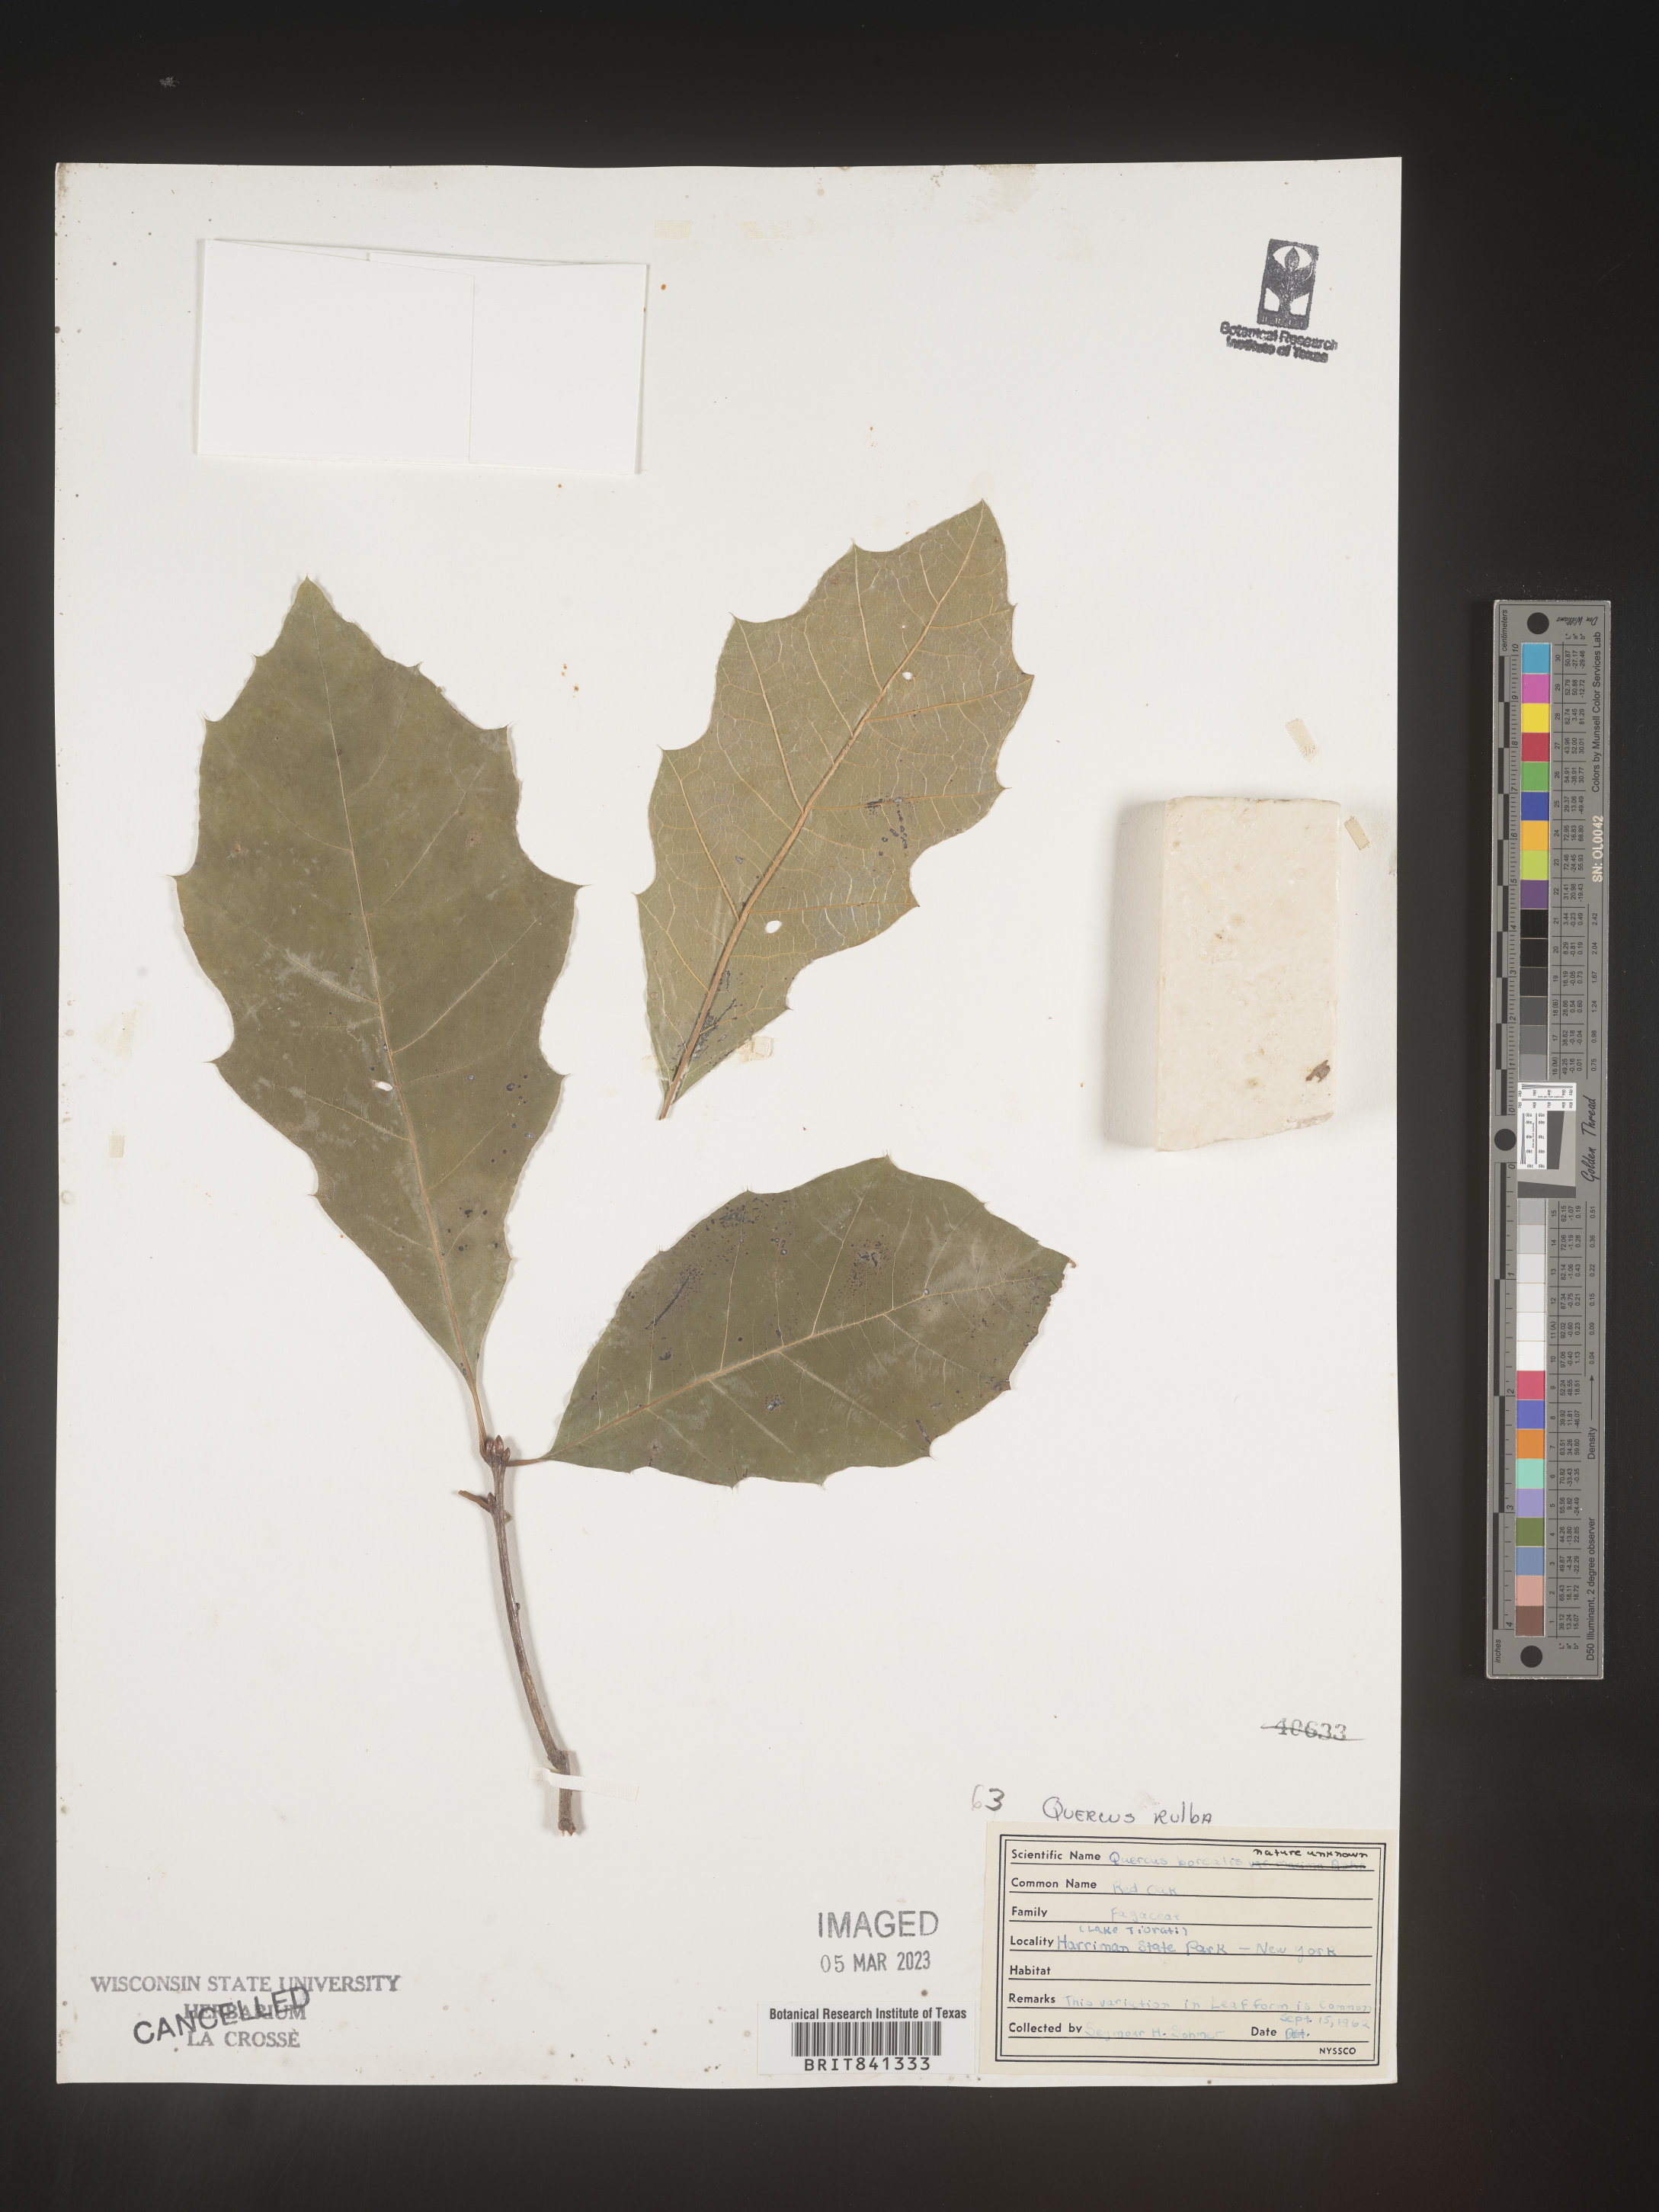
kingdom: Plantae
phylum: Tracheophyta
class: Magnoliopsida
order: Fagales
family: Fagaceae
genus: Quercus
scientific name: Quercus rubra
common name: Red oak
